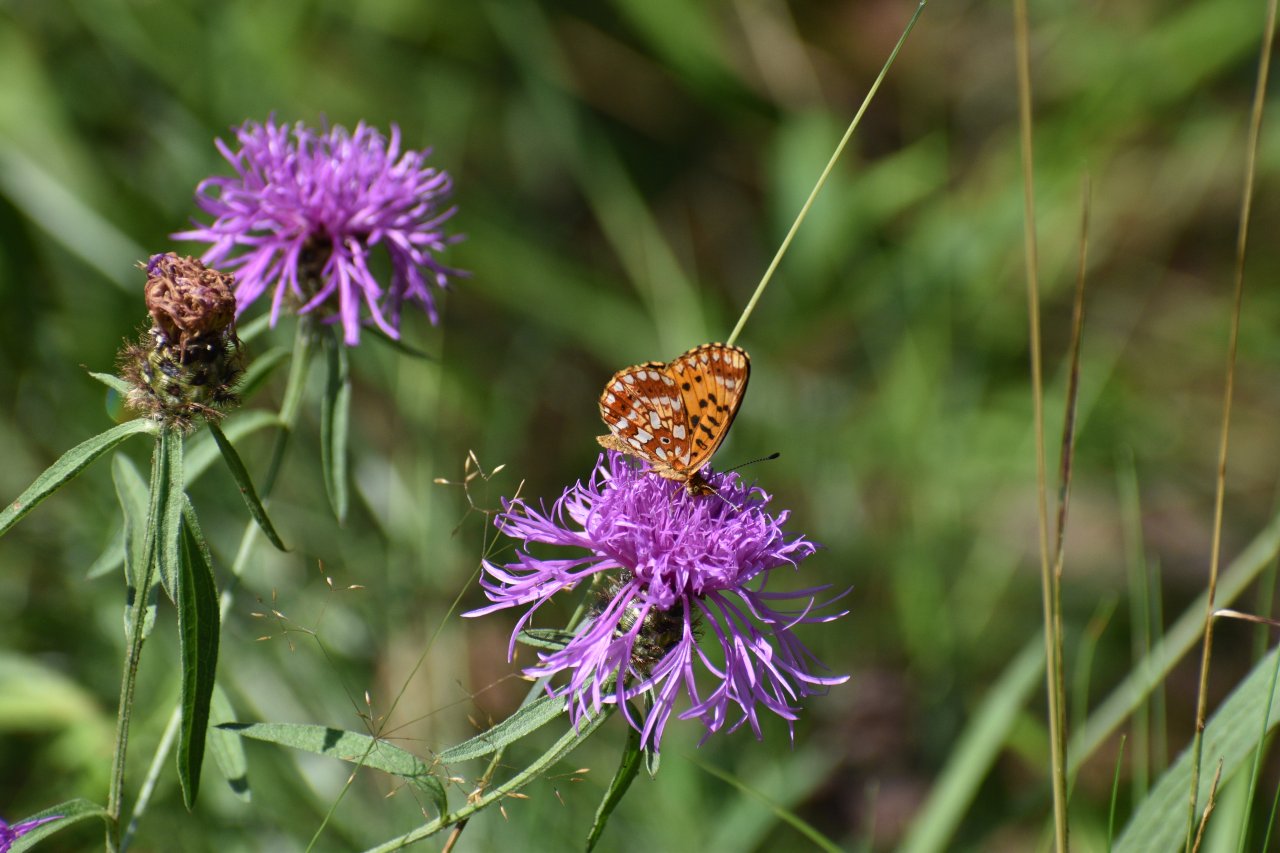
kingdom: Animalia
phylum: Arthropoda
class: Insecta
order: Lepidoptera
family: Nymphalidae
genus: Boloria
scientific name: Boloria selene
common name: Silver-bordered Fritillary
